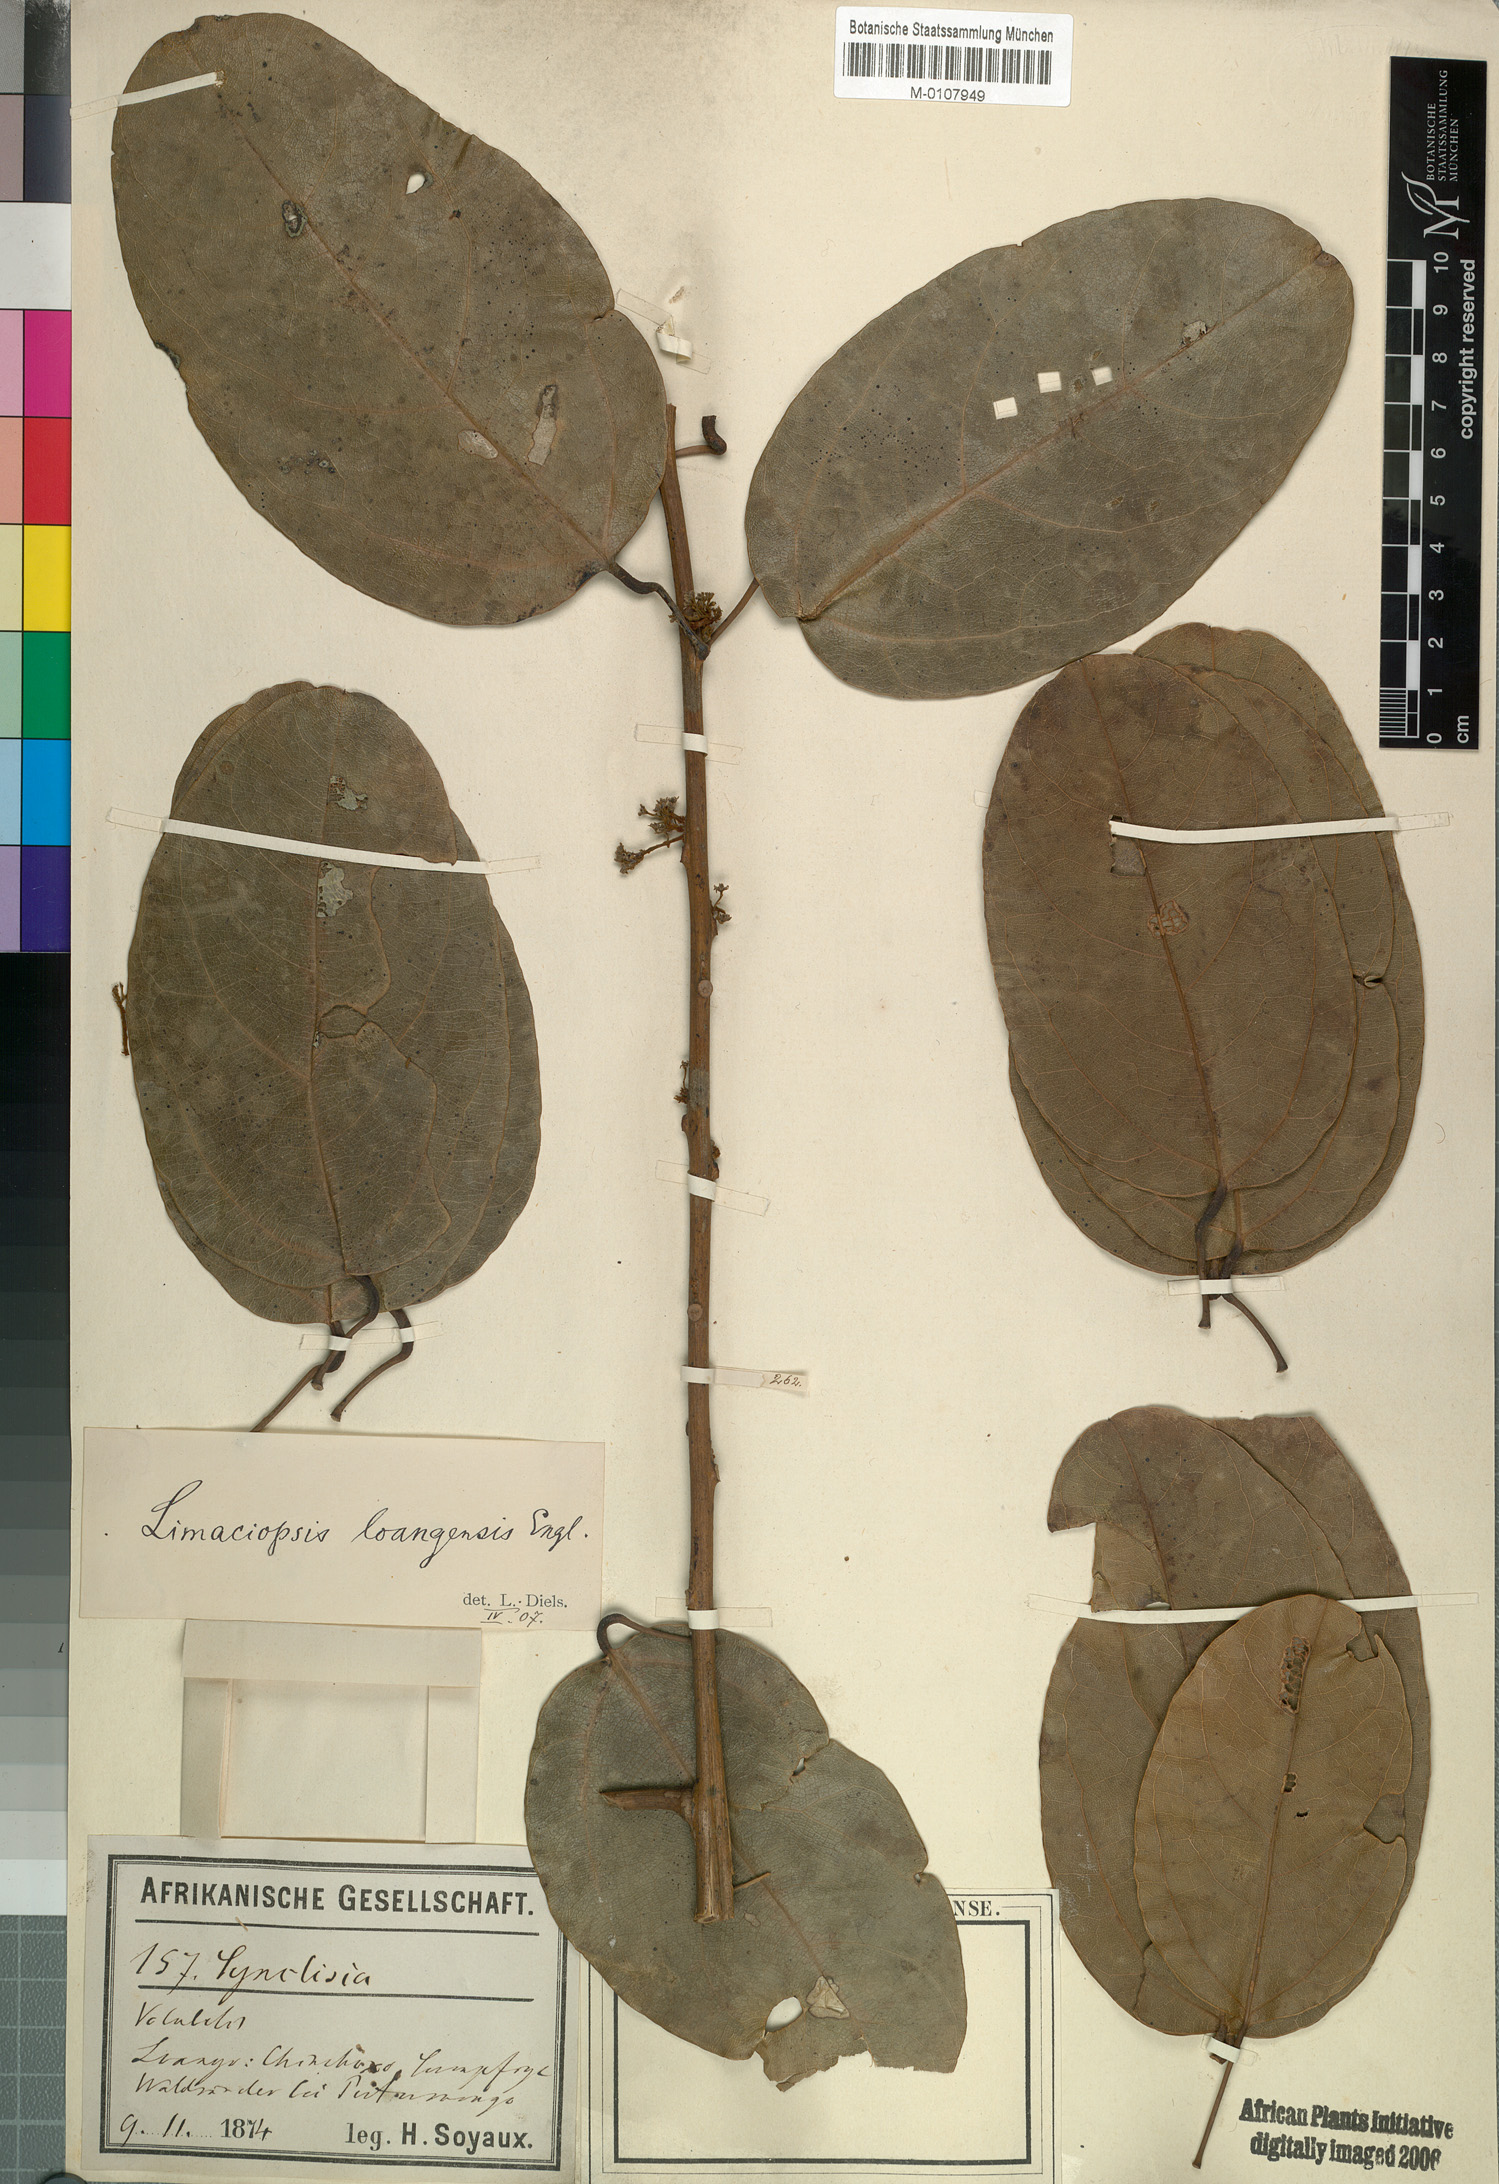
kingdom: Plantae
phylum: Tracheophyta
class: Magnoliopsida
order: Ranunculales
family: Menispermaceae
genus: Limaciopsis
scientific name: Limaciopsis loangensis
